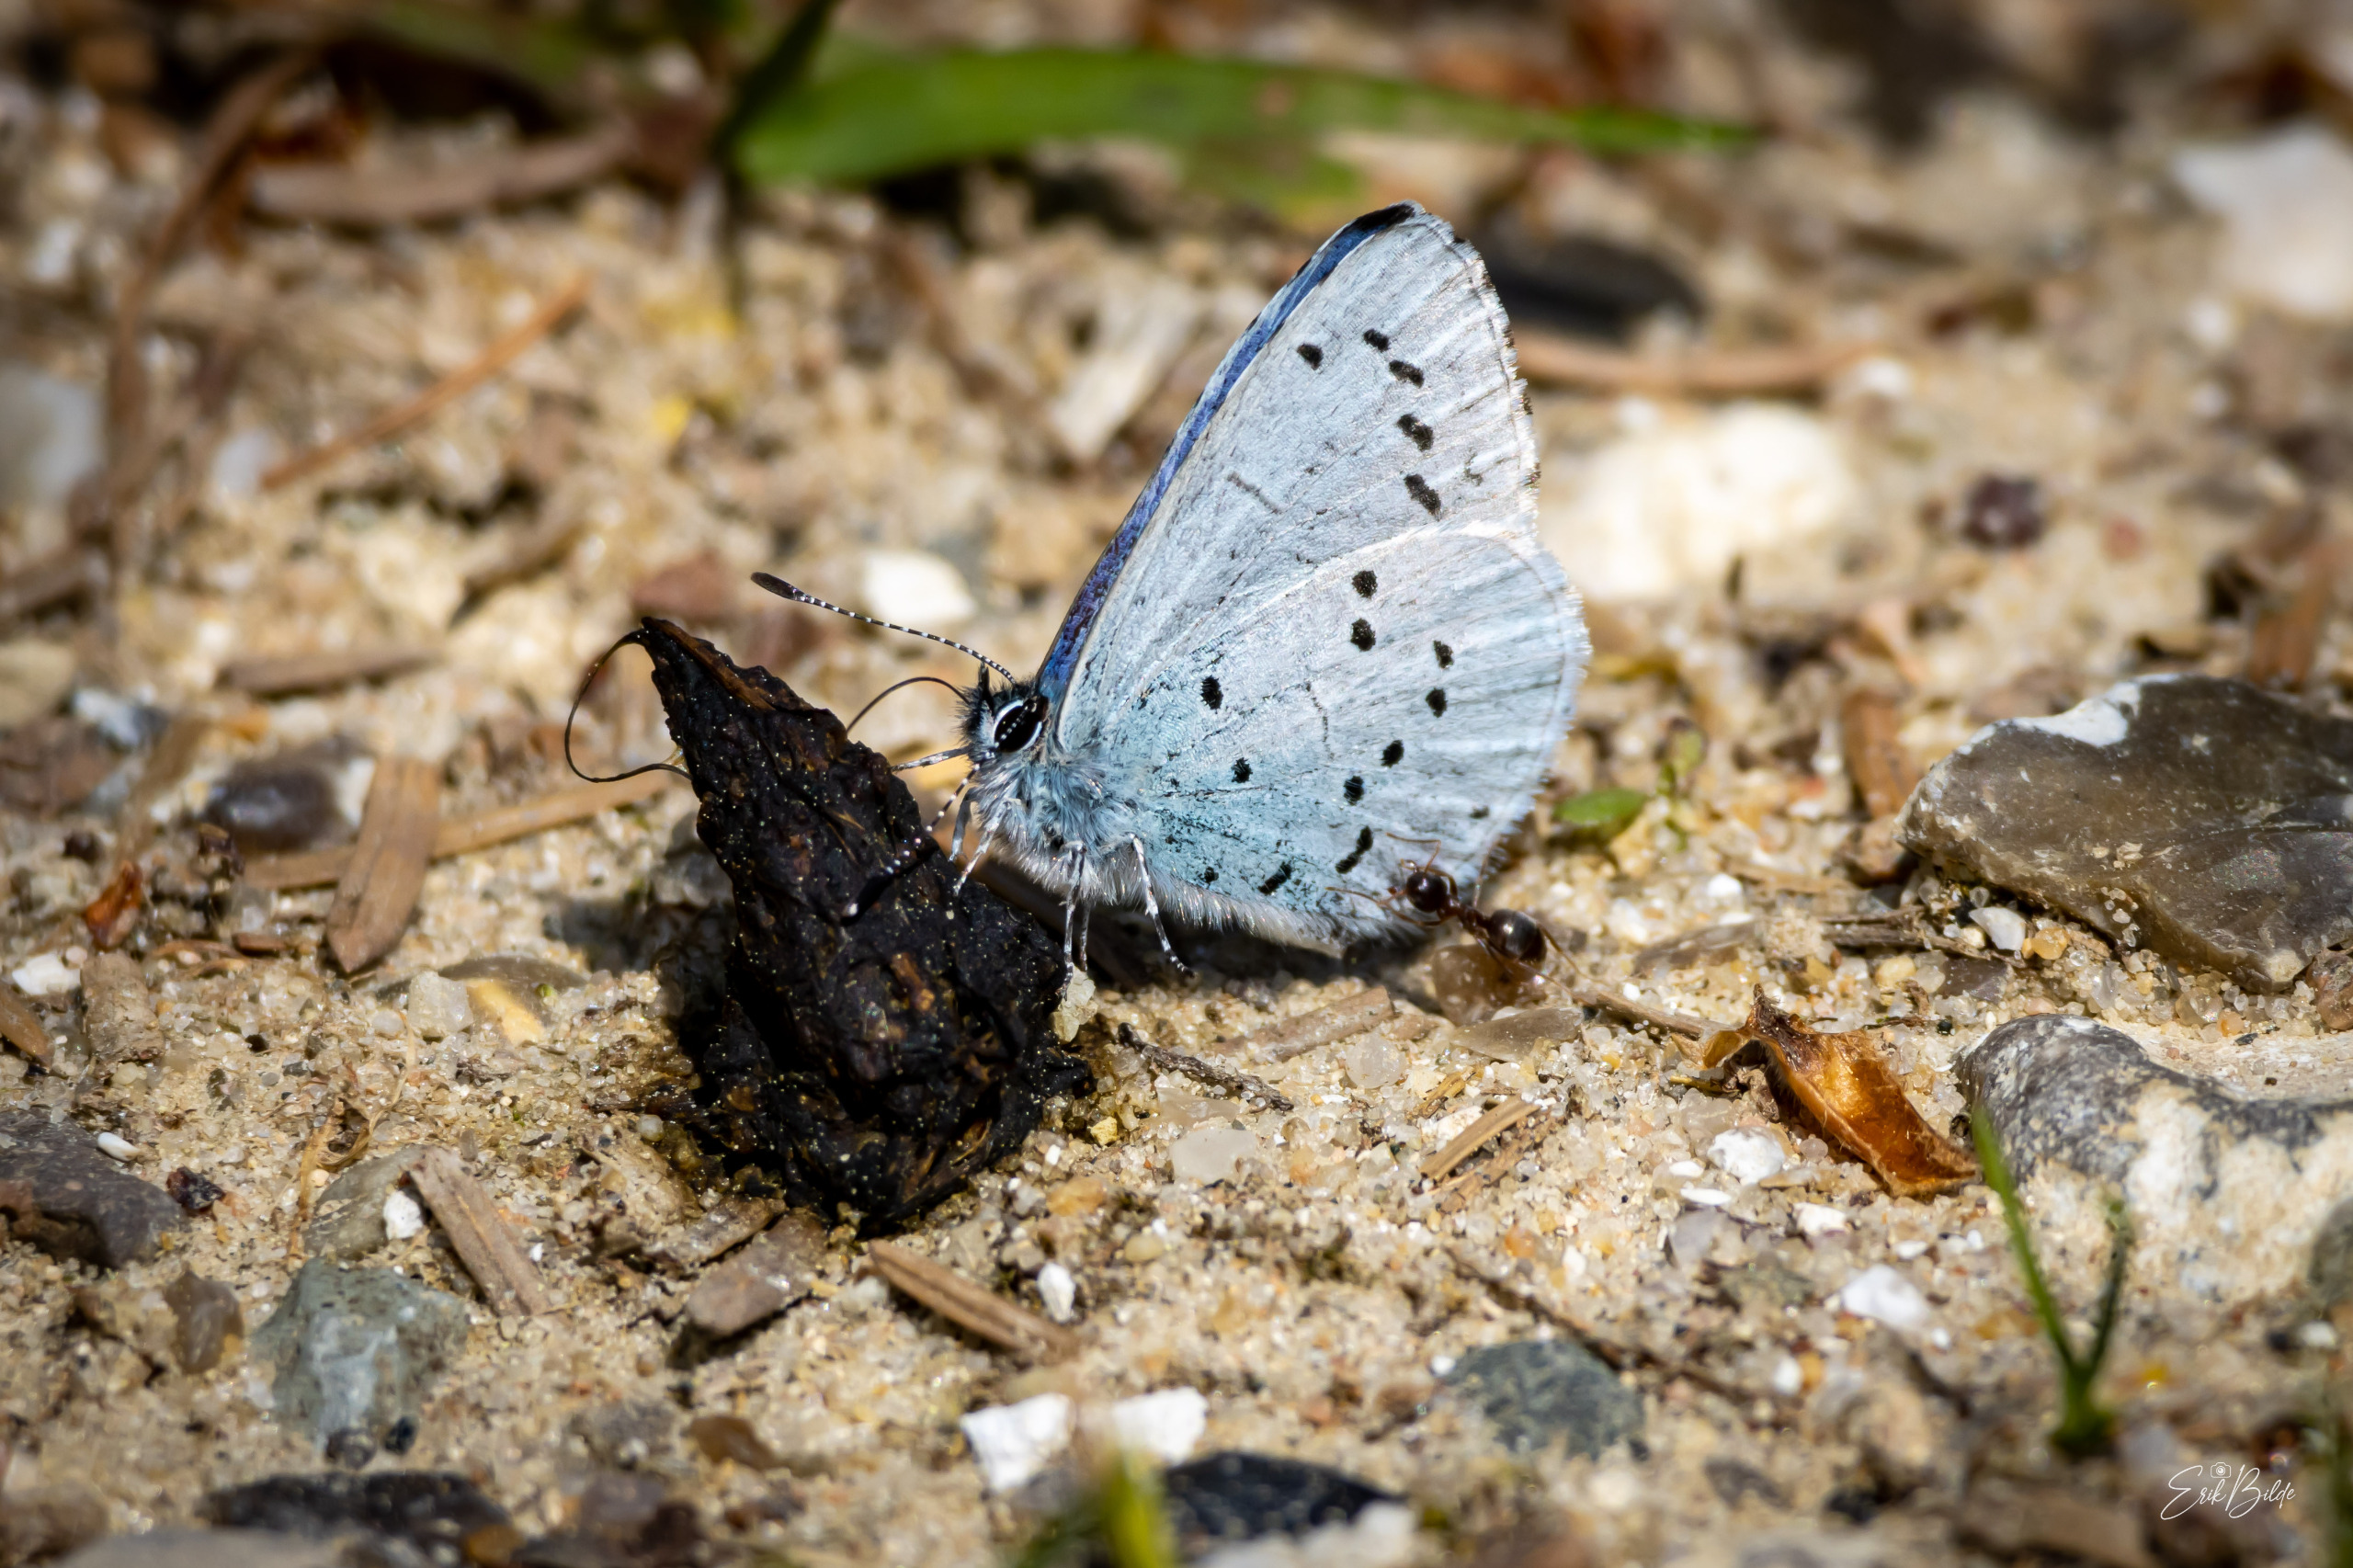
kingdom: Animalia
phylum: Arthropoda
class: Insecta
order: Lepidoptera
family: Lycaenidae
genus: Celastrina
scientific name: Celastrina argiolus
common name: Skovblåfugl
